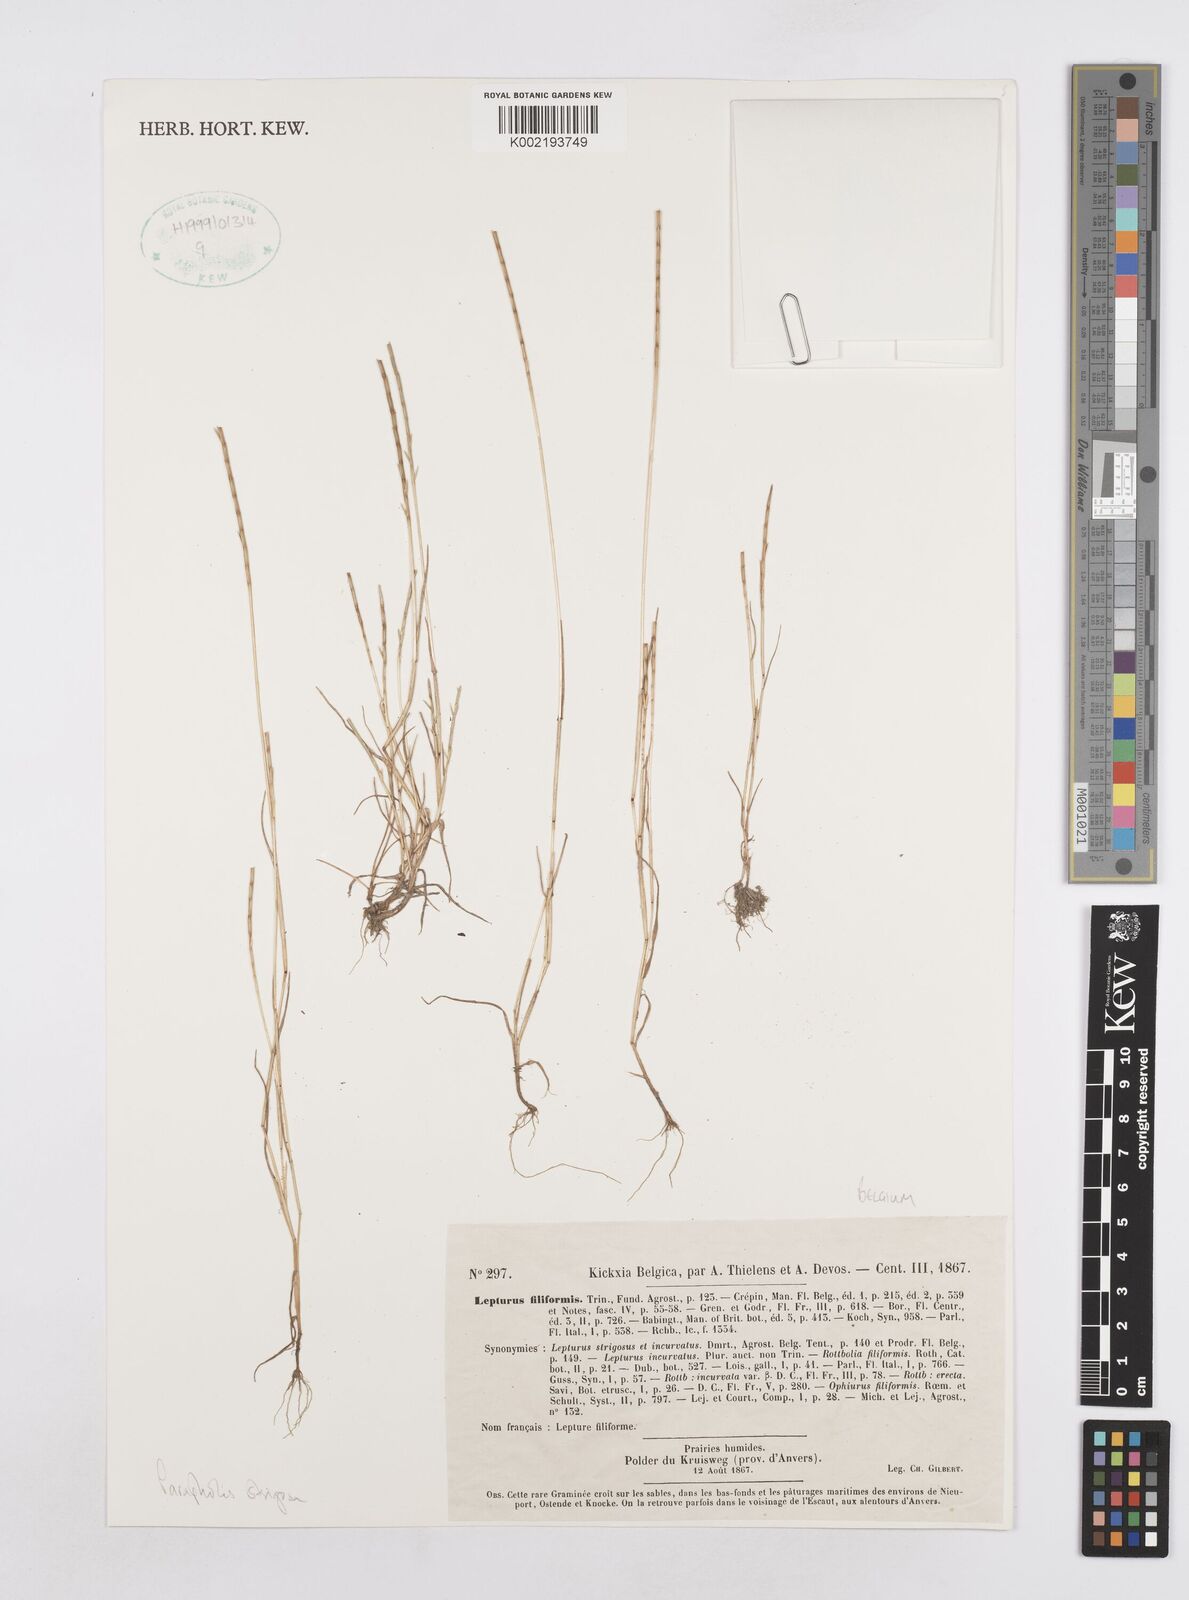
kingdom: Plantae
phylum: Tracheophyta
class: Liliopsida
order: Poales
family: Poaceae
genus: Parapholis
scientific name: Parapholis strigosa
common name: Hard-grass
